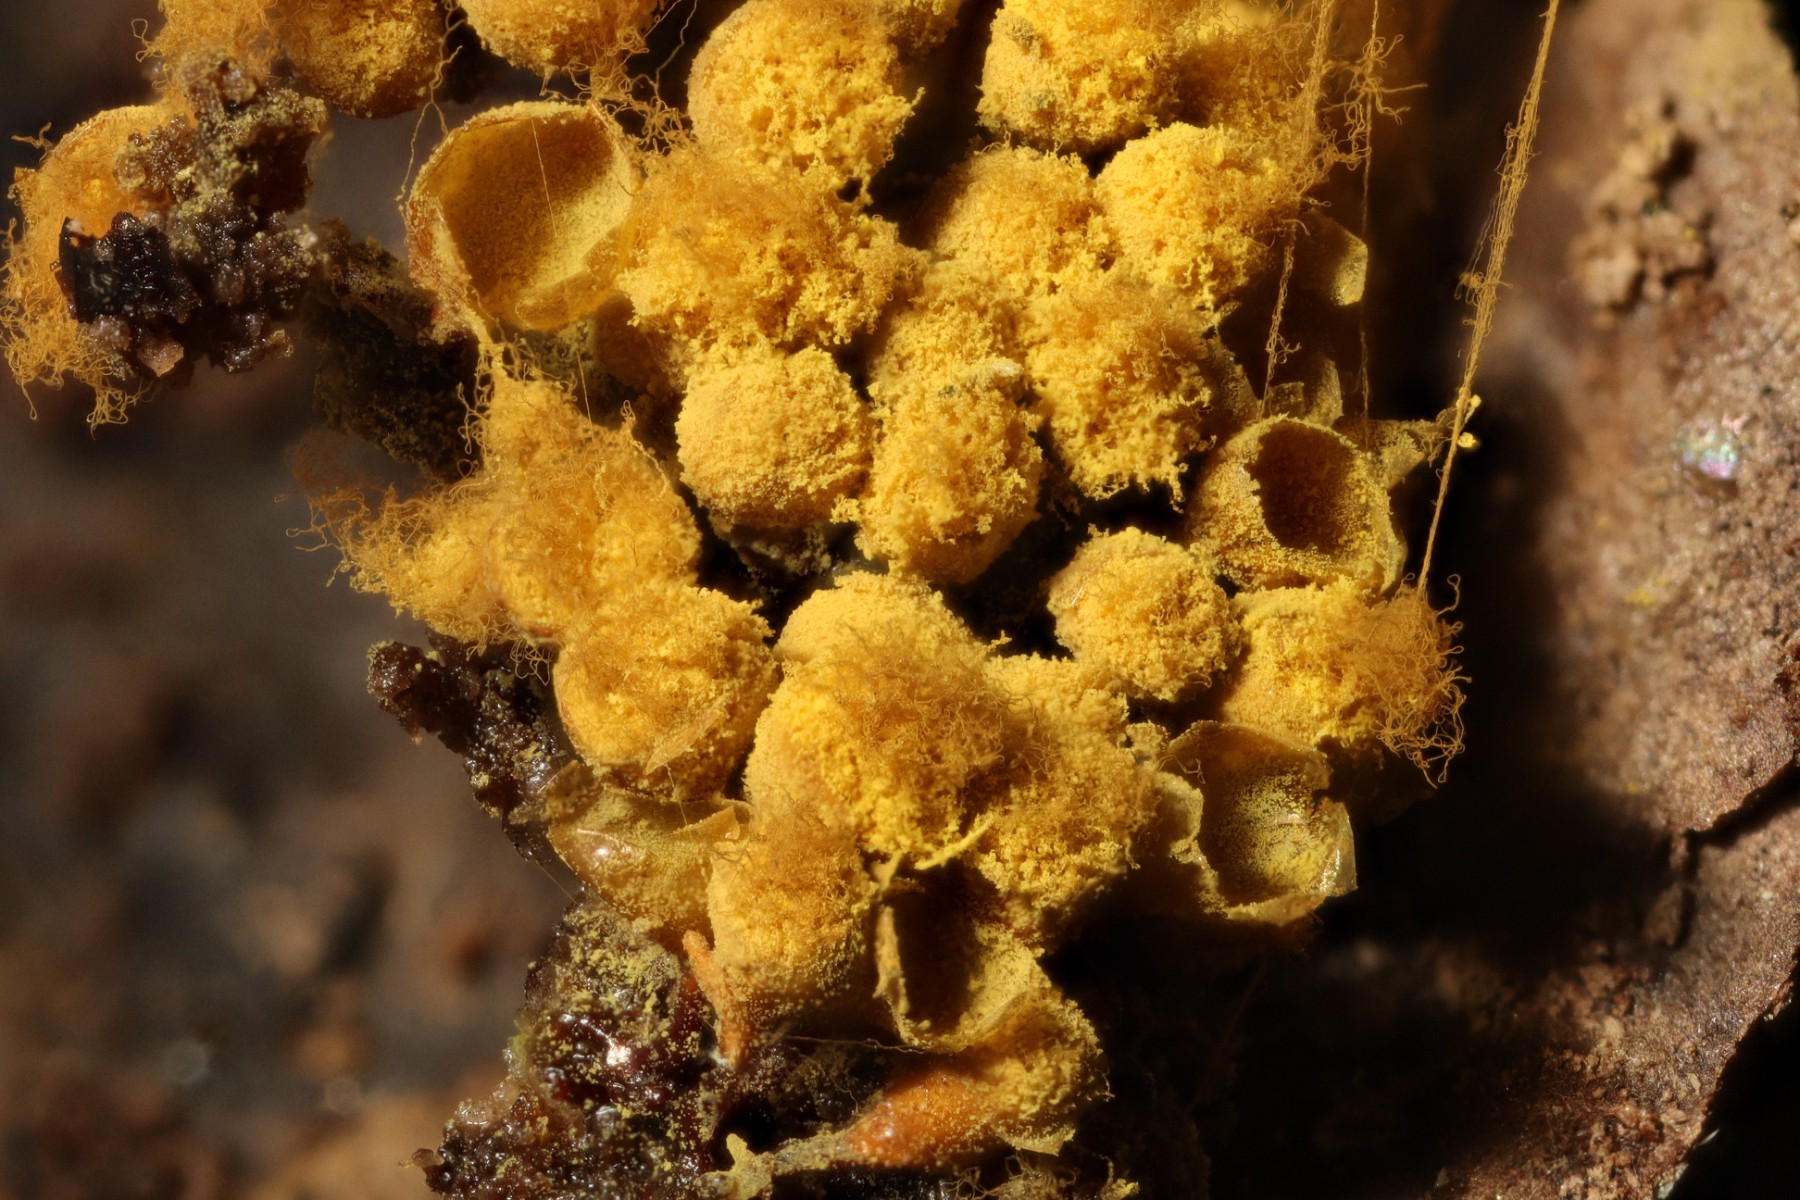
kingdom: Protozoa
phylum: Mycetozoa
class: Myxomycetes
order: Trichiales
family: Arcyriaceae
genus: Hemitrichia
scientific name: Hemitrichia clavata
